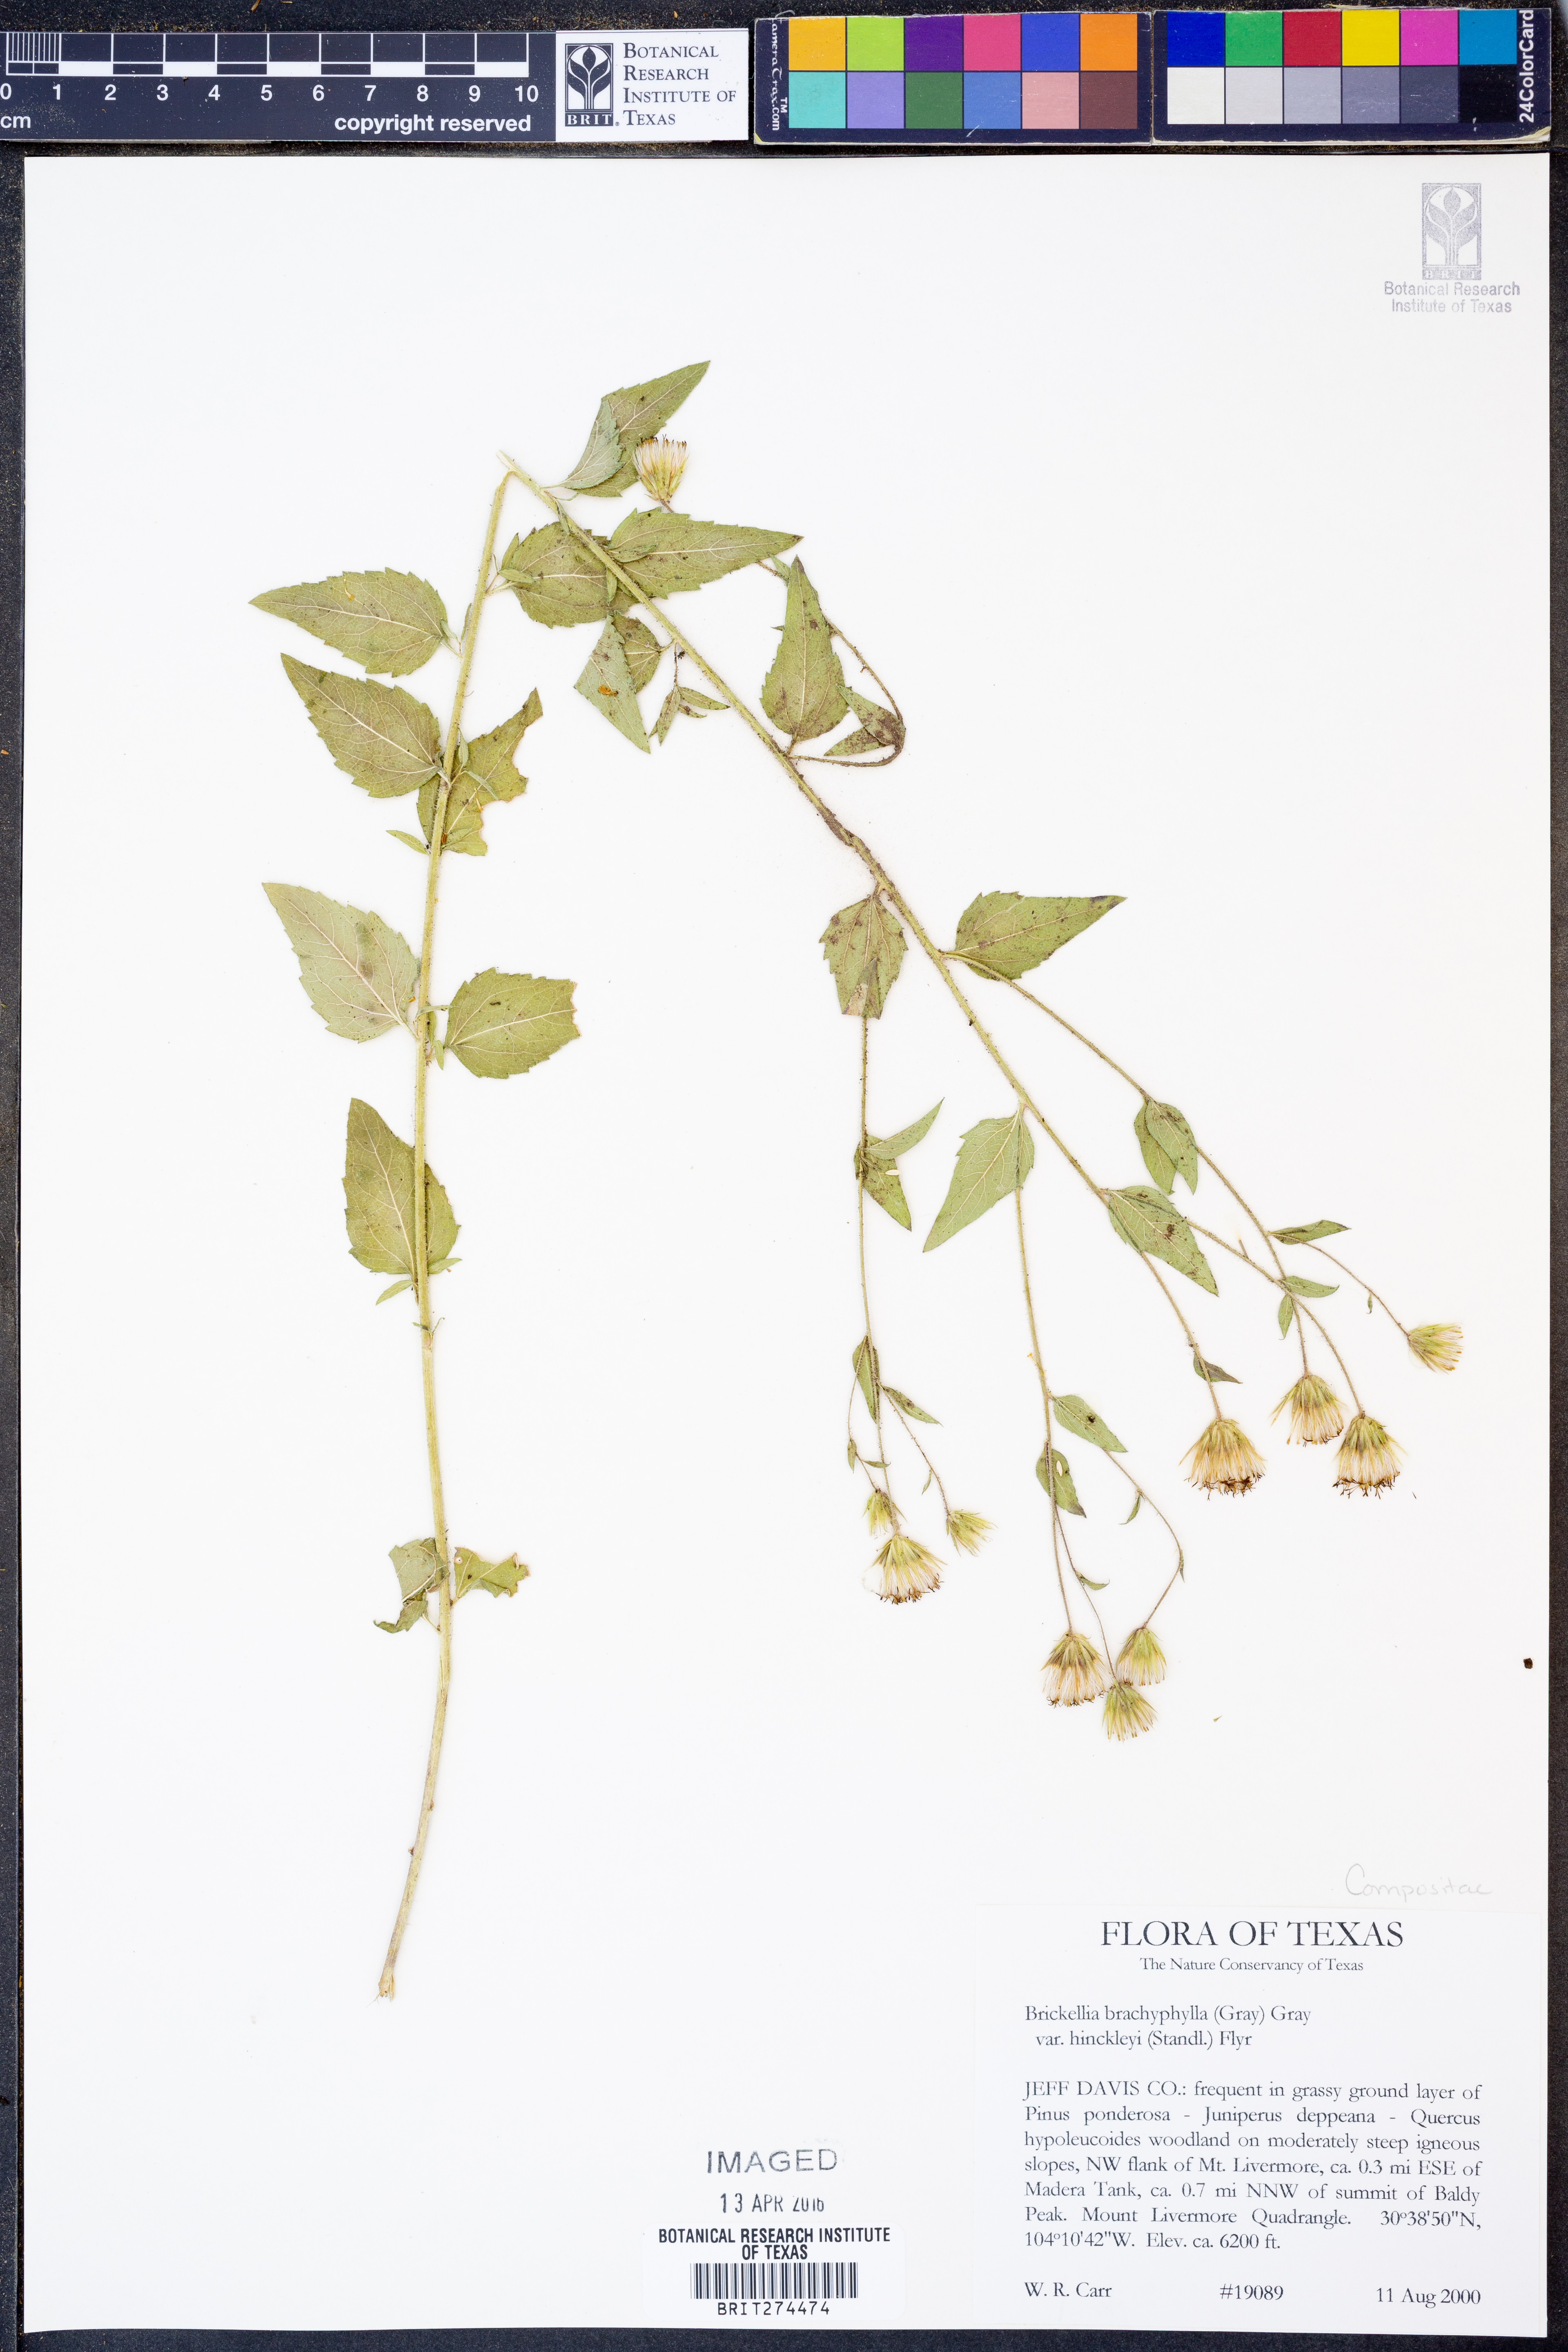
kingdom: Plantae
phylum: Tracheophyta
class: Magnoliopsida
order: Asterales
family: Asteraceae
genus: Brickellia
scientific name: Brickellia hinckleyi
